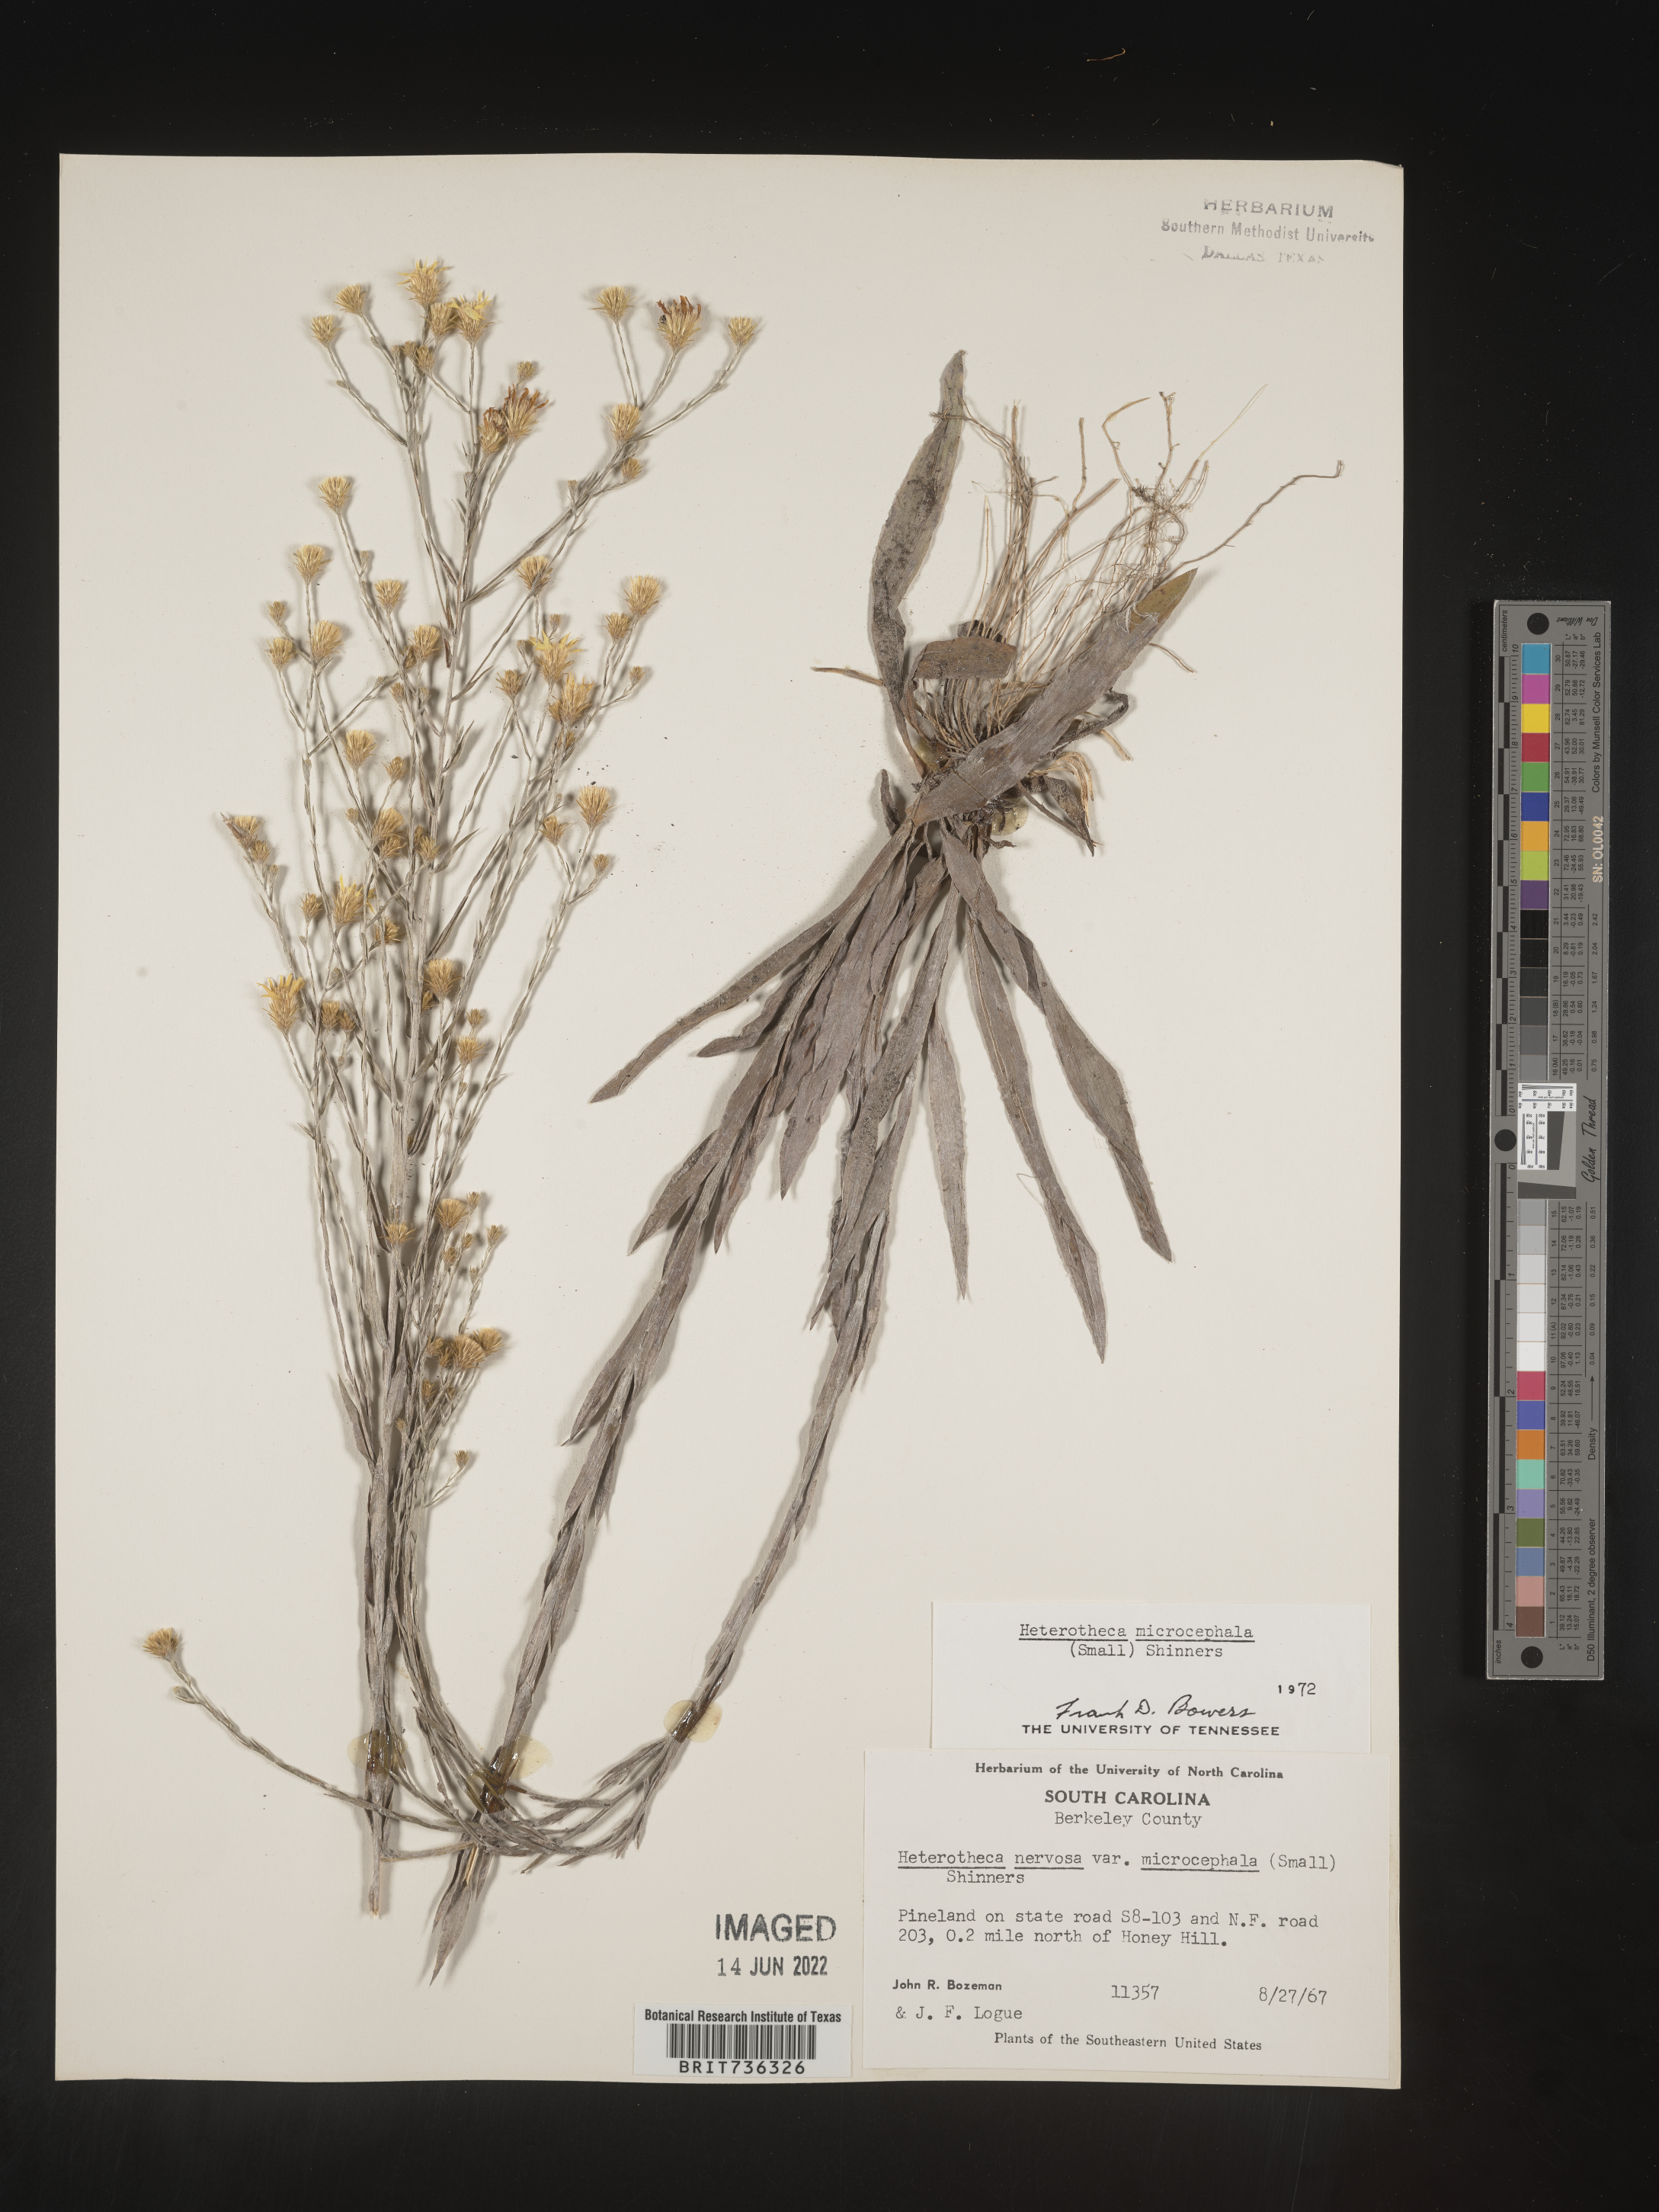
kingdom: Plantae
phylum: Tracheophyta
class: Magnoliopsida
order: Asterales
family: Asteraceae
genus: Pityopsis
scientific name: Pityopsis microcephala
